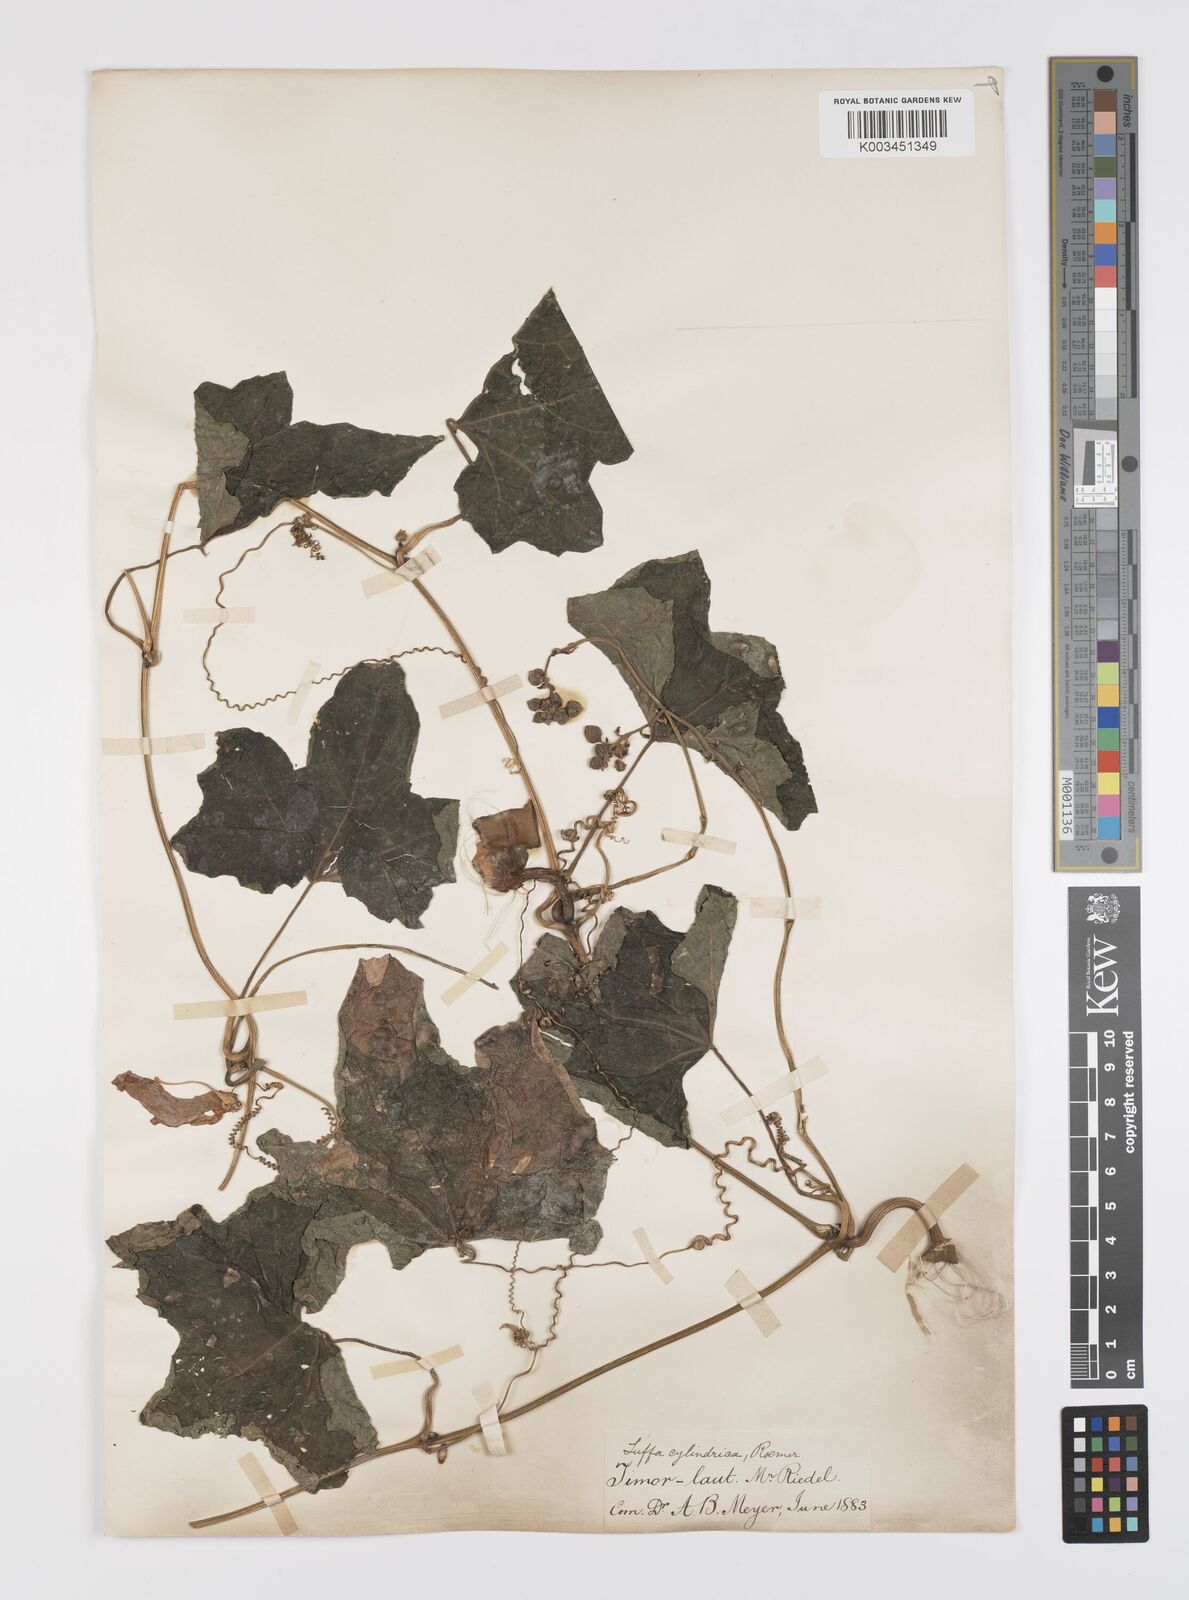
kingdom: Plantae
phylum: Tracheophyta
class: Magnoliopsida
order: Cucurbitales
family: Cucurbitaceae
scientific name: Cucurbitaceae
